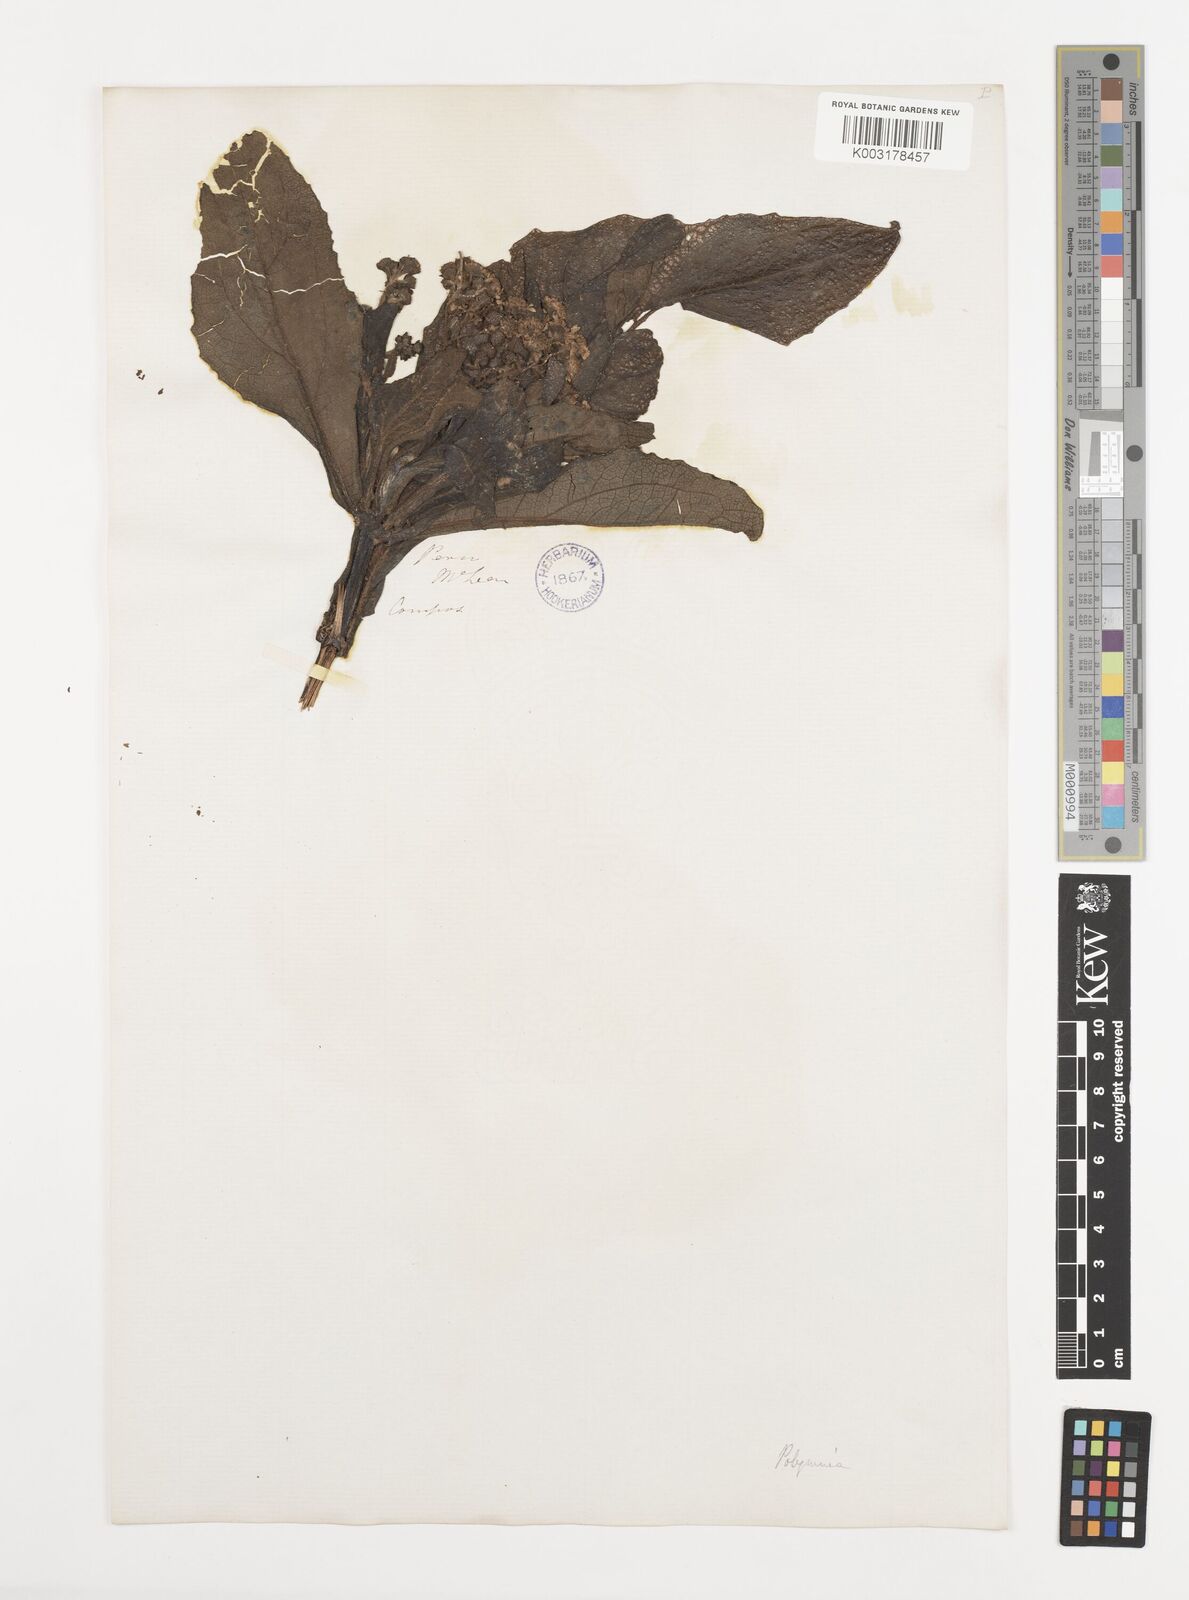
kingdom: Plantae
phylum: Tracheophyta
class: Magnoliopsida
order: Asterales
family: Asteraceae
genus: Smallanthus
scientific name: Smallanthus glabratus
